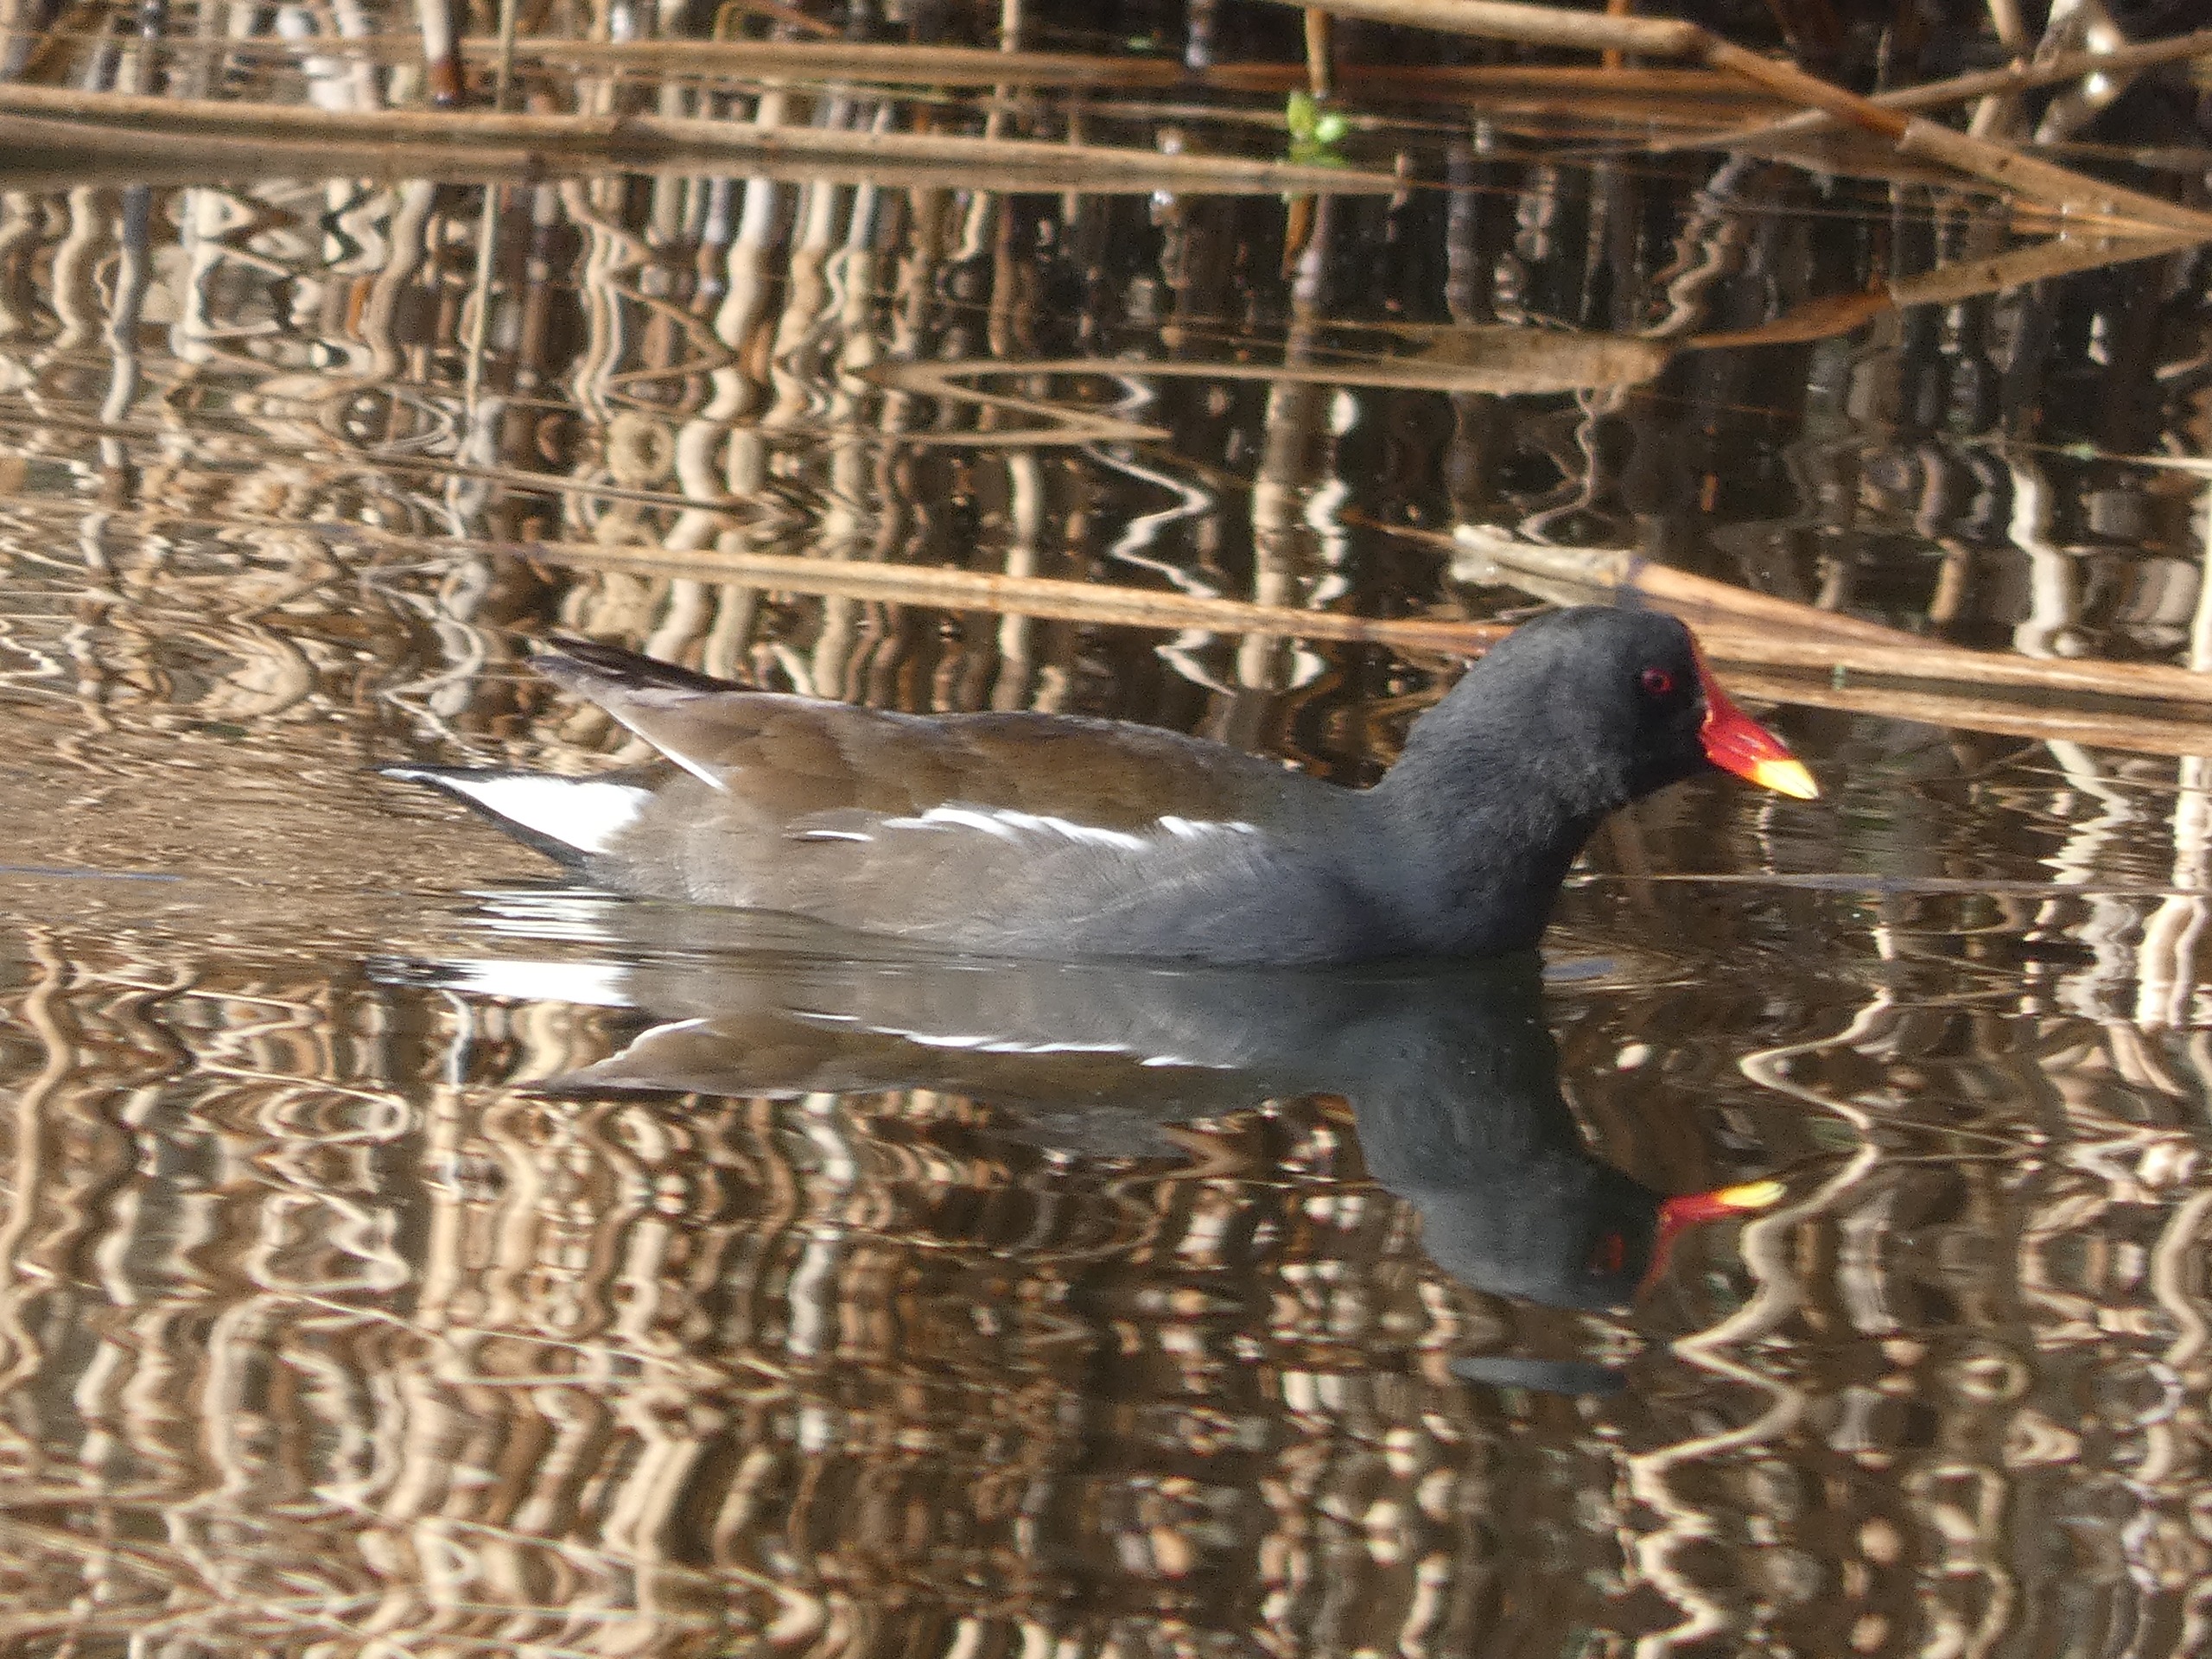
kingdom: Animalia
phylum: Chordata
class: Aves
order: Gruiformes
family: Rallidae
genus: Gallinula
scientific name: Gallinula chloropus
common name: Grønbenet rørhøne
